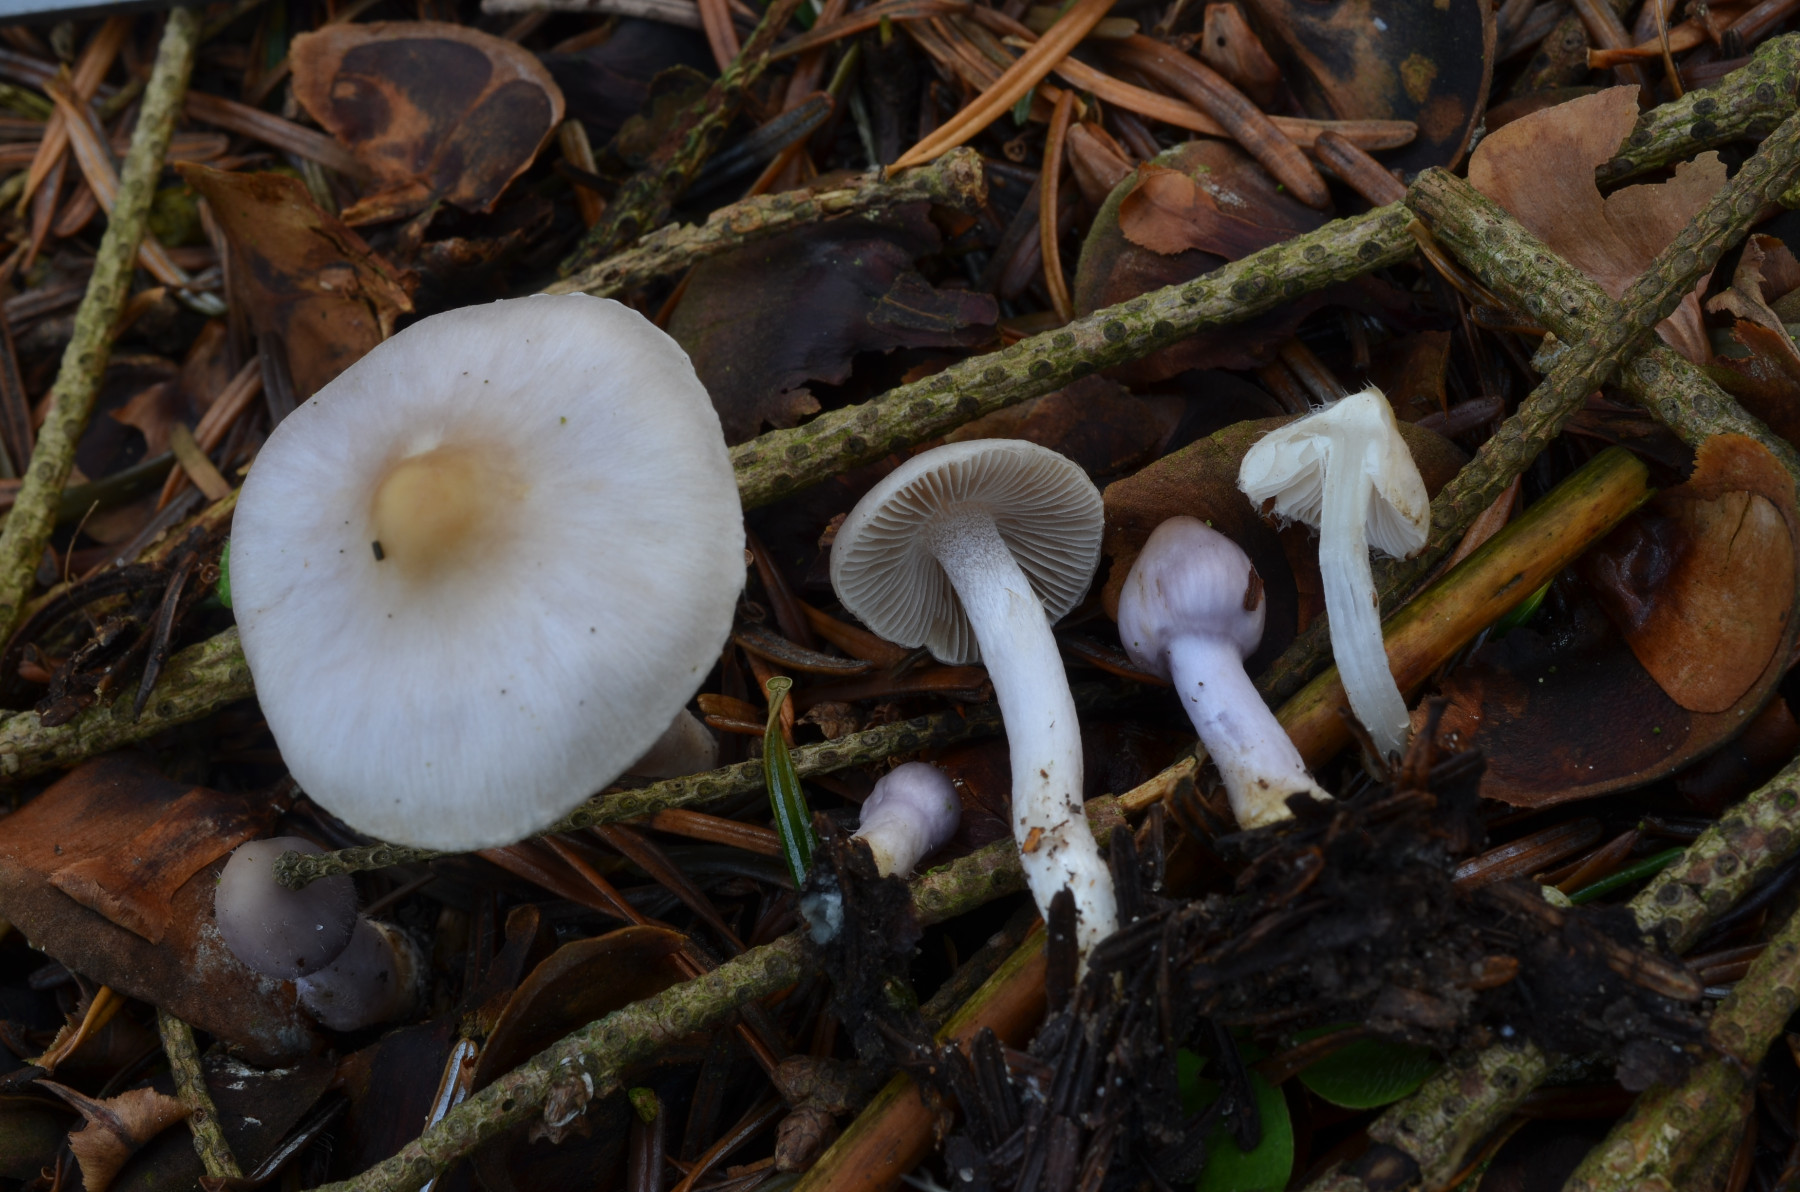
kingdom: Fungi
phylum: Basidiomycota
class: Agaricomycetes
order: Agaricales
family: Inocybaceae
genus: Inocybe
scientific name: Inocybe lilacinomaculata
